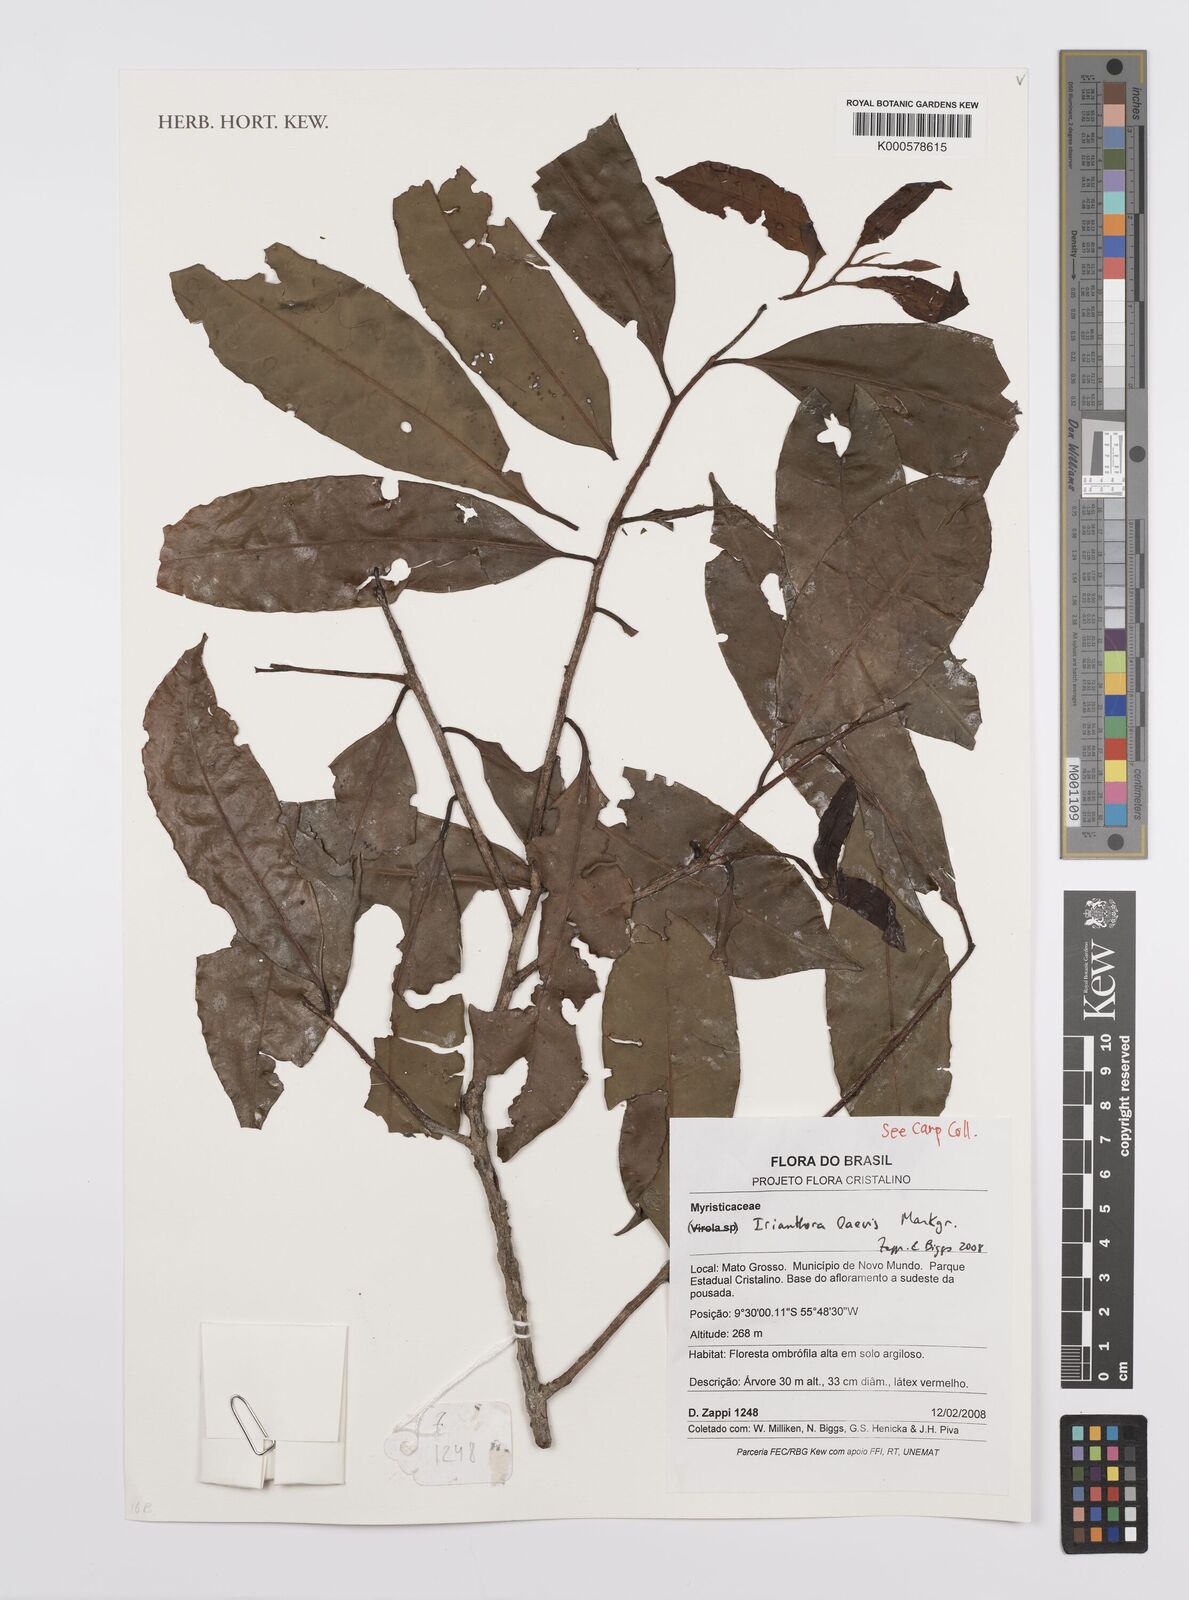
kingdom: Plantae
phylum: Tracheophyta
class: Magnoliopsida
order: Magnoliales
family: Myristicaceae
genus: Iryanthera
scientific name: Iryanthera laevis
